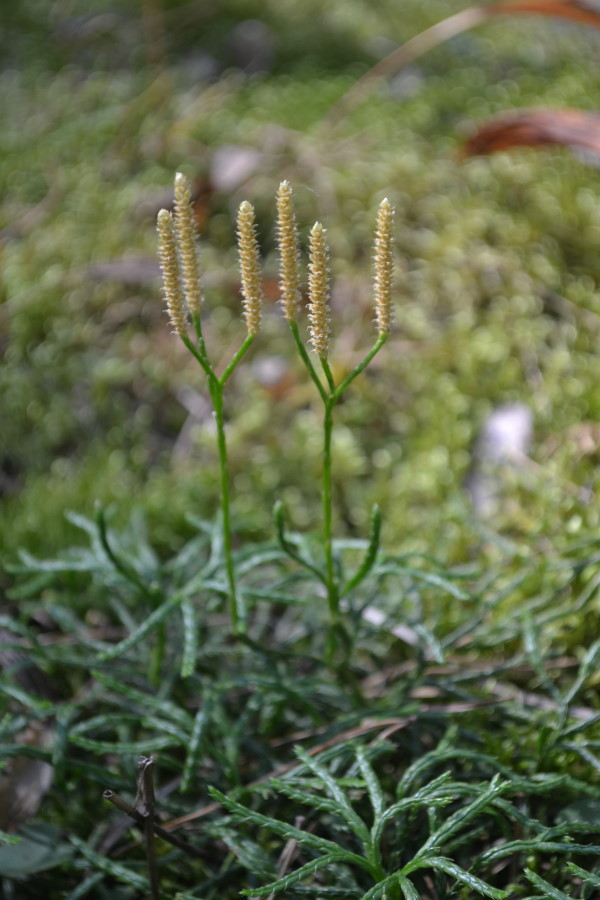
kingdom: Plantae
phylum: Tracheophyta
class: Lycopodiopsida
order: Lycopodiales
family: Lycopodiaceae
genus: Diphasiastrum
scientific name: Diphasiastrum complanatum
